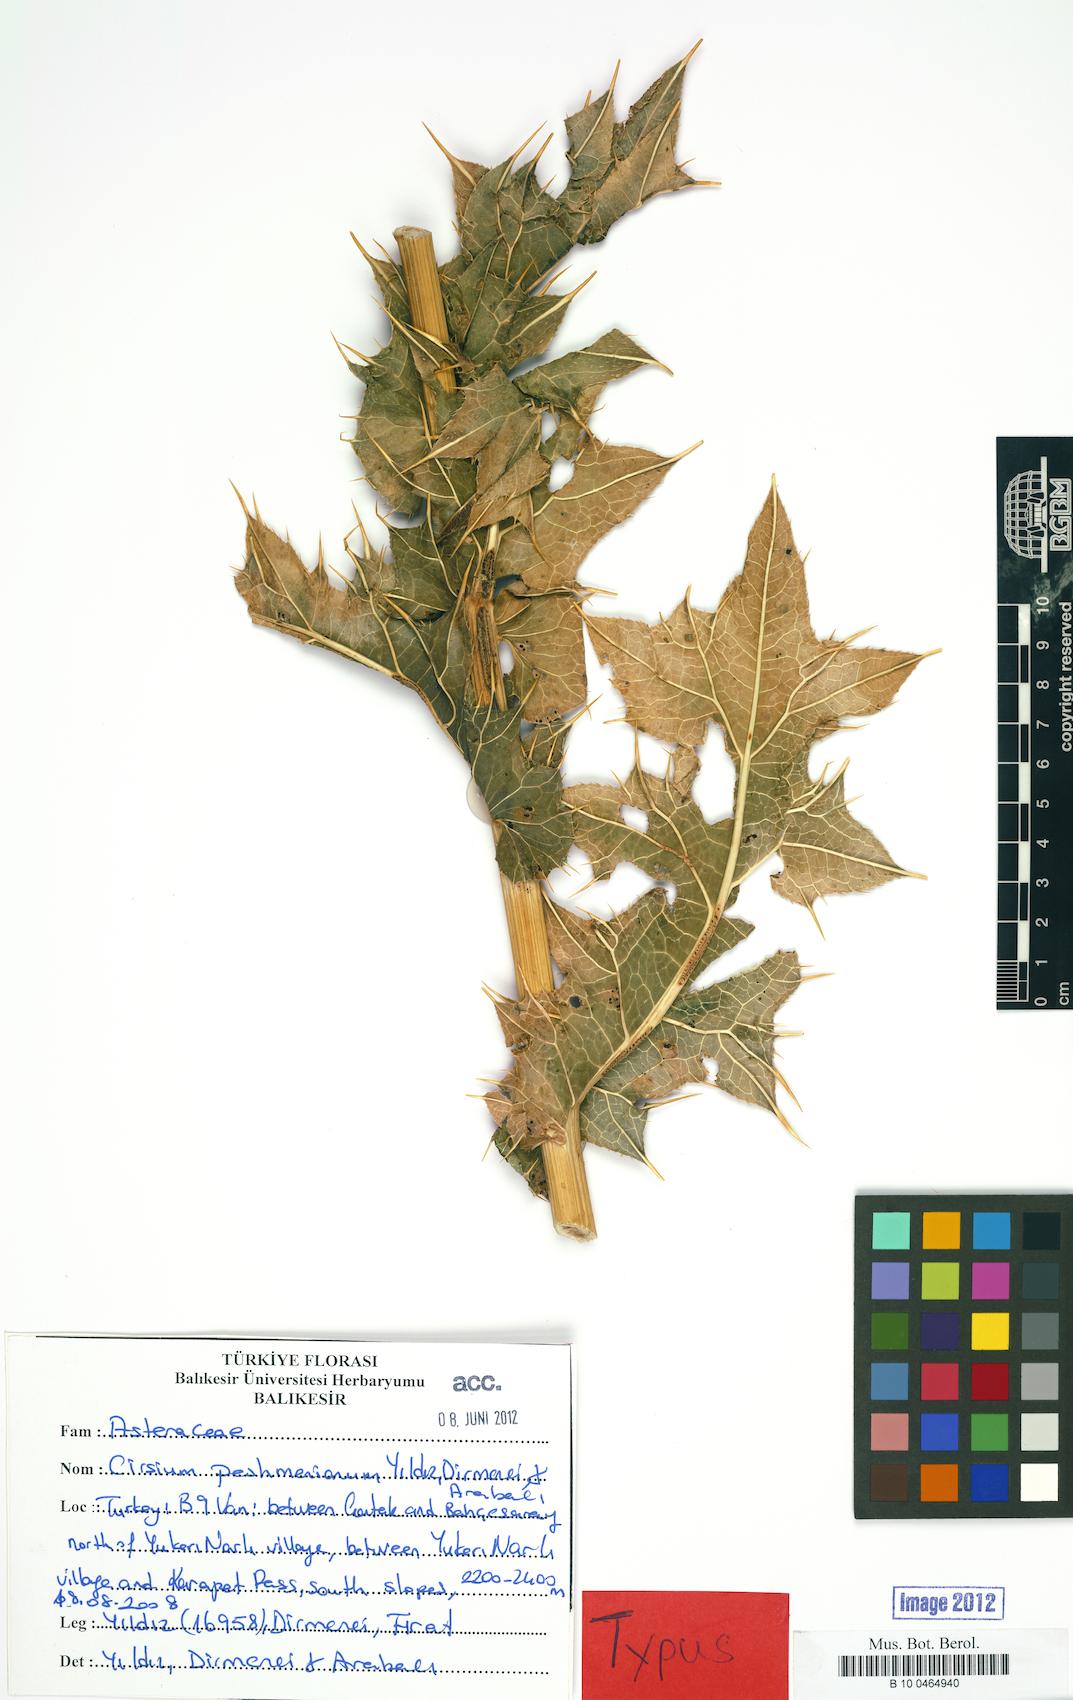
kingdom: Plantae
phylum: Tracheophyta
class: Magnoliopsida
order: Asterales
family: Asteraceae
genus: Lophiolepis
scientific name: Lophiolepis peshmeniana
